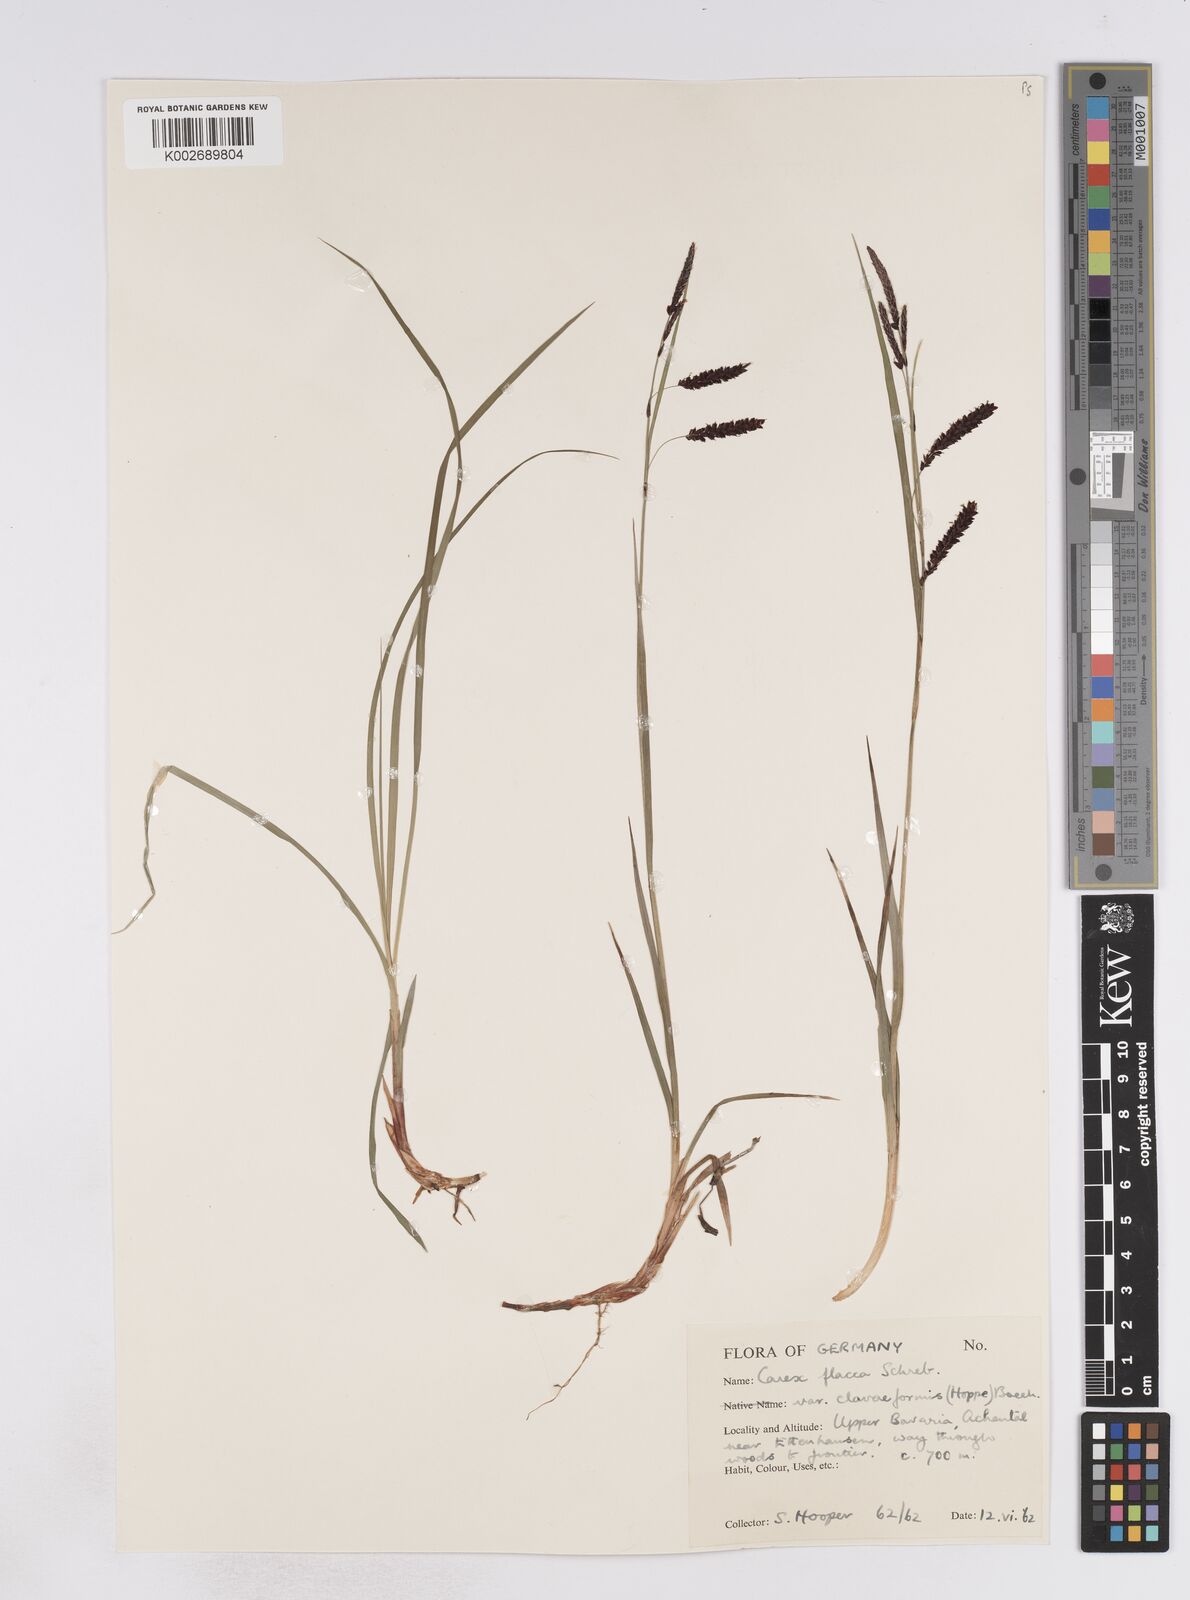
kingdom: Plantae
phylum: Tracheophyta
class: Liliopsida
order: Poales
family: Cyperaceae
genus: Carex
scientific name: Carex flacca
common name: Glaucous sedge
